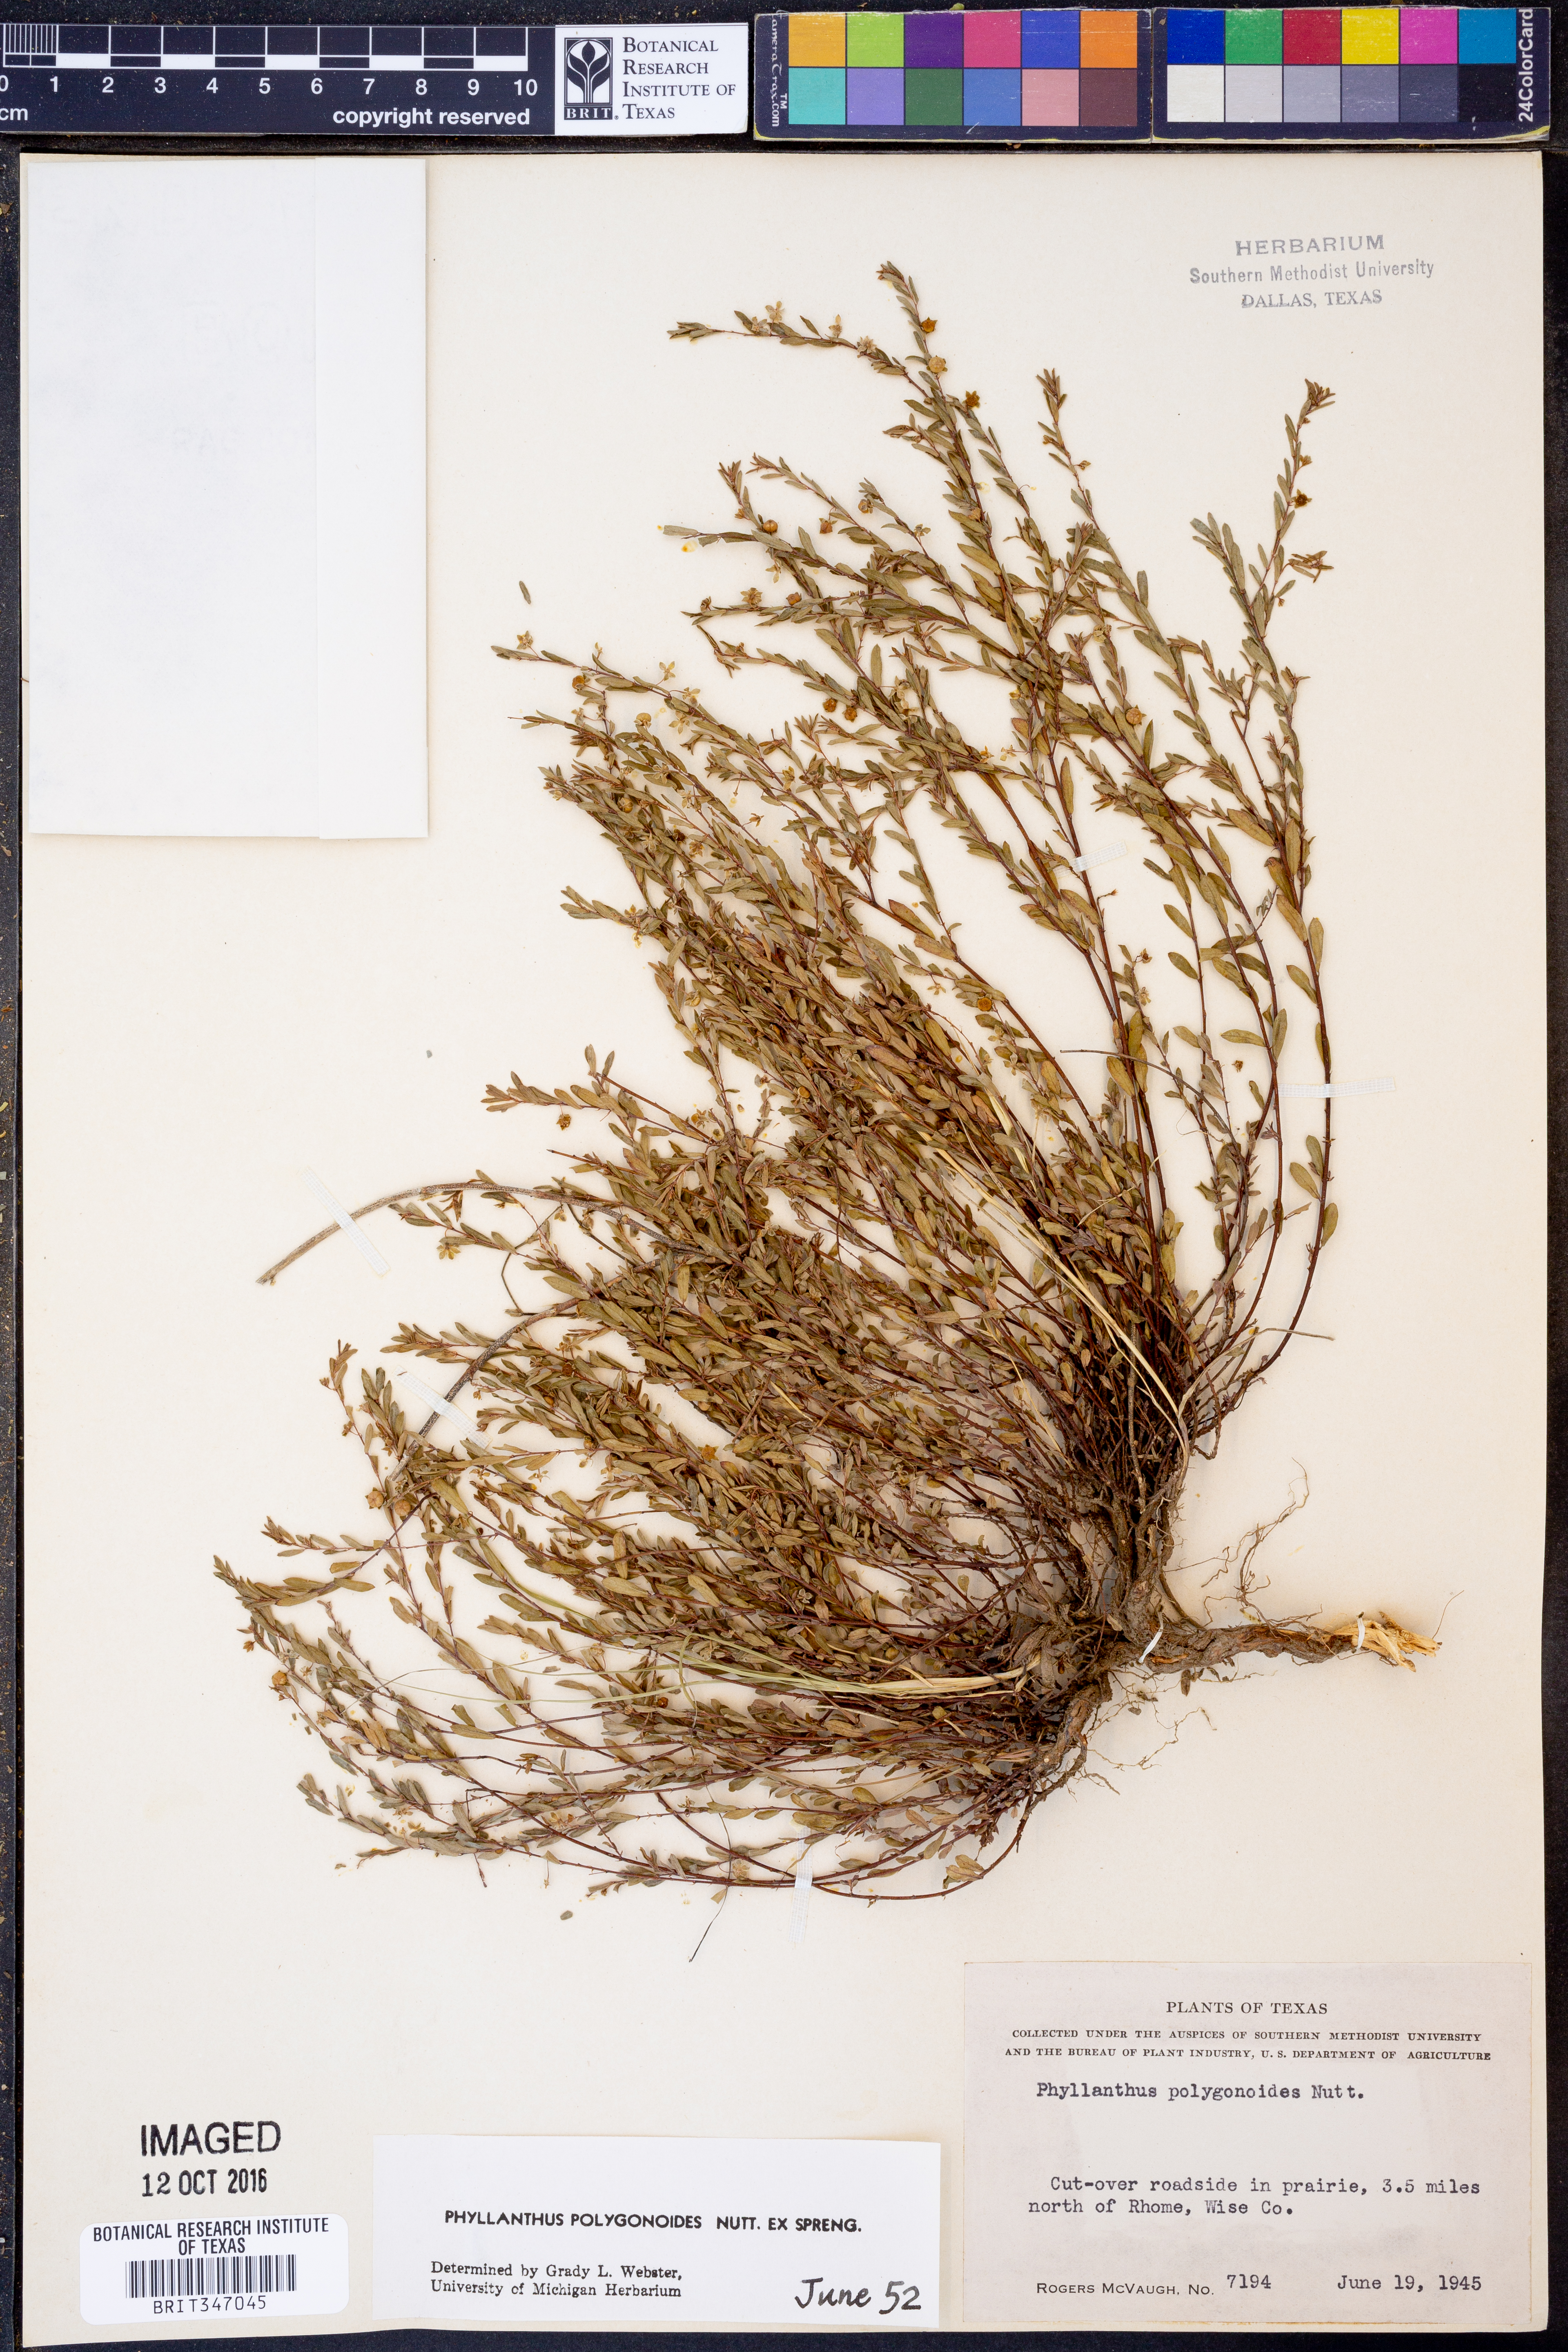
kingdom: Plantae
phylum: Tracheophyta
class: Magnoliopsida
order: Malpighiales
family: Phyllanthaceae
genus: Phyllanthus
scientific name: Phyllanthus polygonoides
